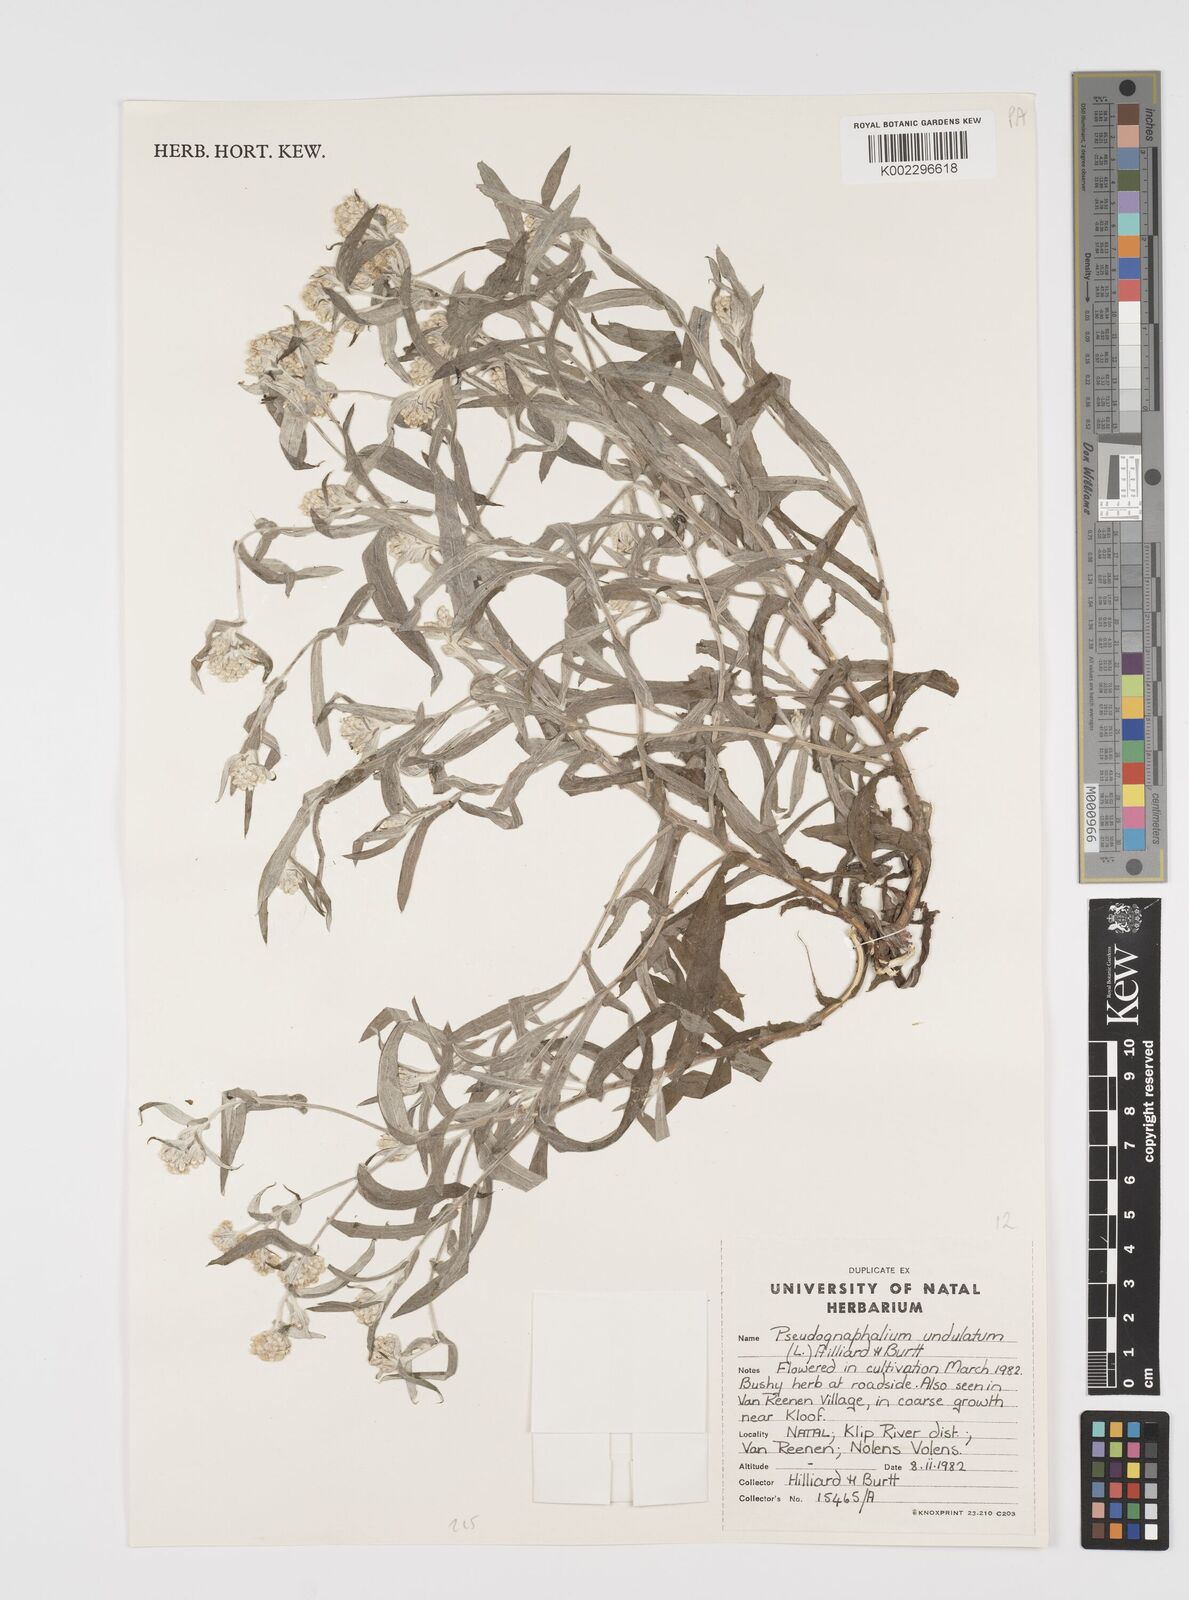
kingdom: Plantae
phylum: Tracheophyta
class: Magnoliopsida
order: Asterales
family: Asteraceae
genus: Pseudognaphalium
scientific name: Pseudognaphalium undulatum
